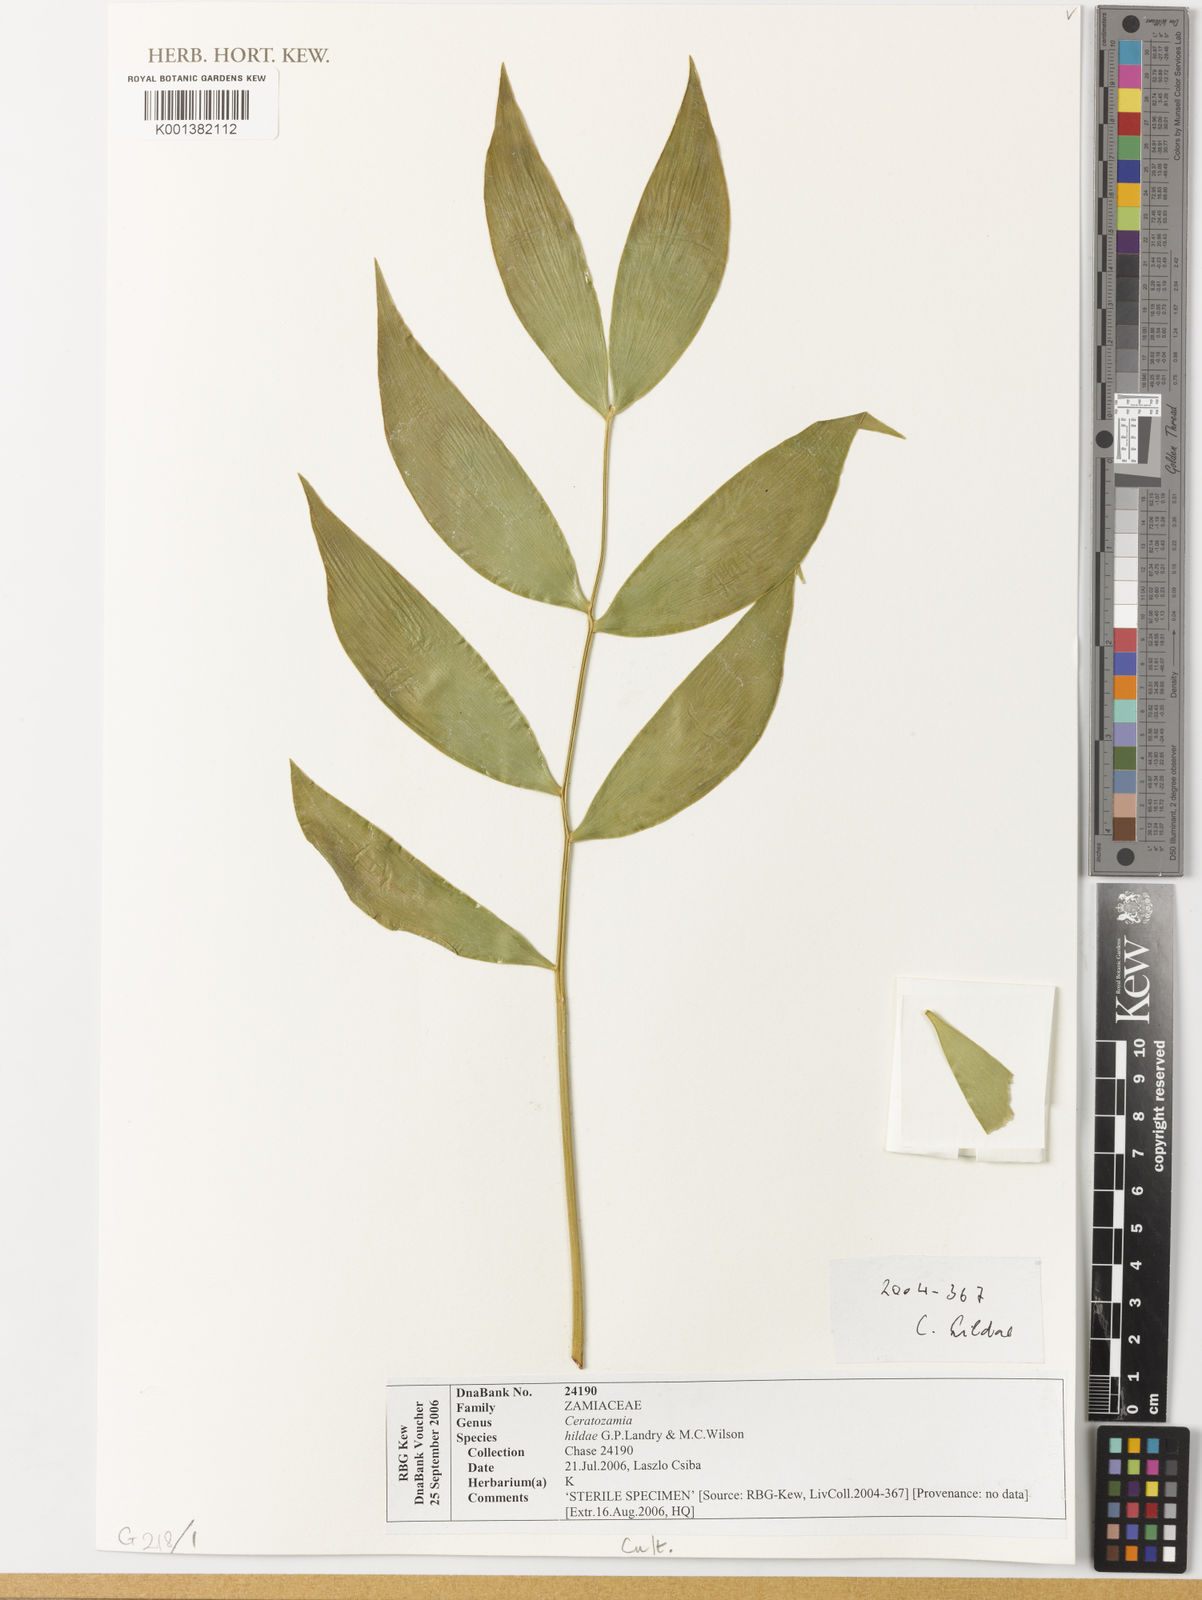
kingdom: Plantae
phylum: Tracheophyta
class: Cycadopsida
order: Cycadales
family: Zamiaceae
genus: Ceratozamia
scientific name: Ceratozamia hildae
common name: Bamboo cycad
